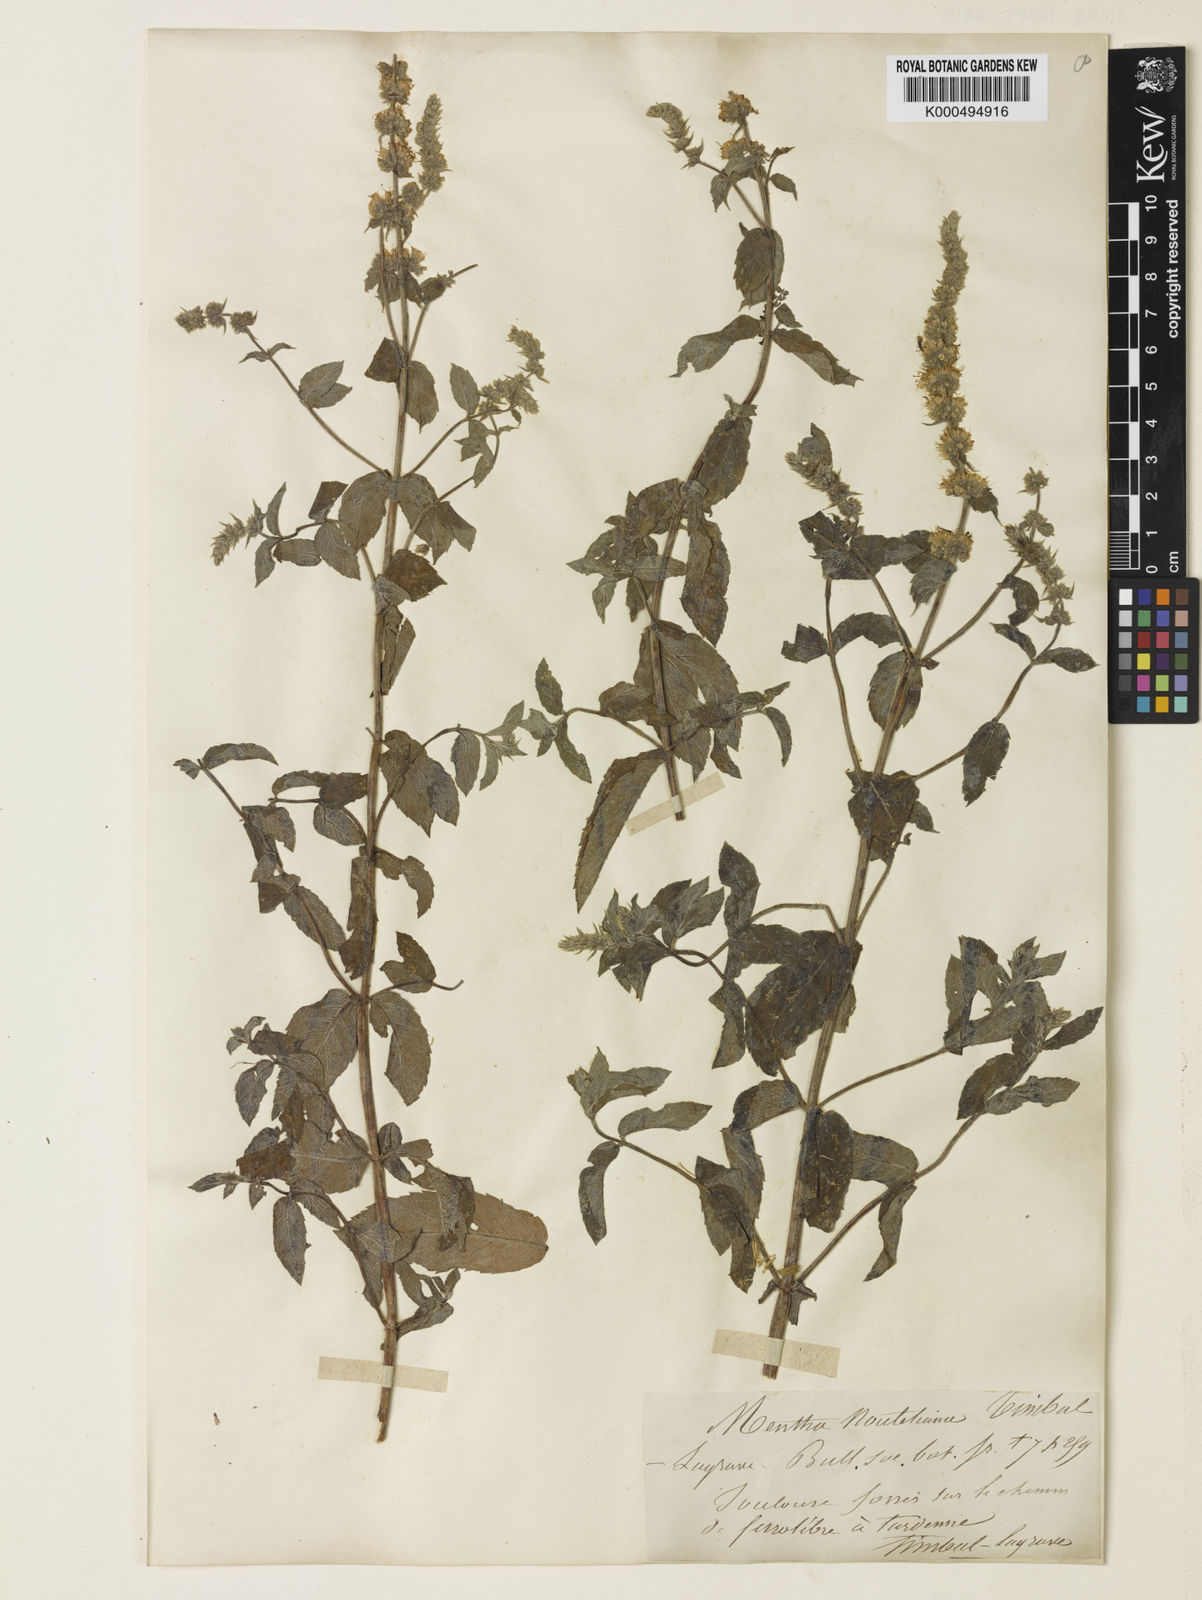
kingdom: Plantae
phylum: Tracheophyta
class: Magnoliopsida
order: Lamiales
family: Lamiaceae
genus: Mentha
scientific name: Mentha spicata
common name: Spearmint
